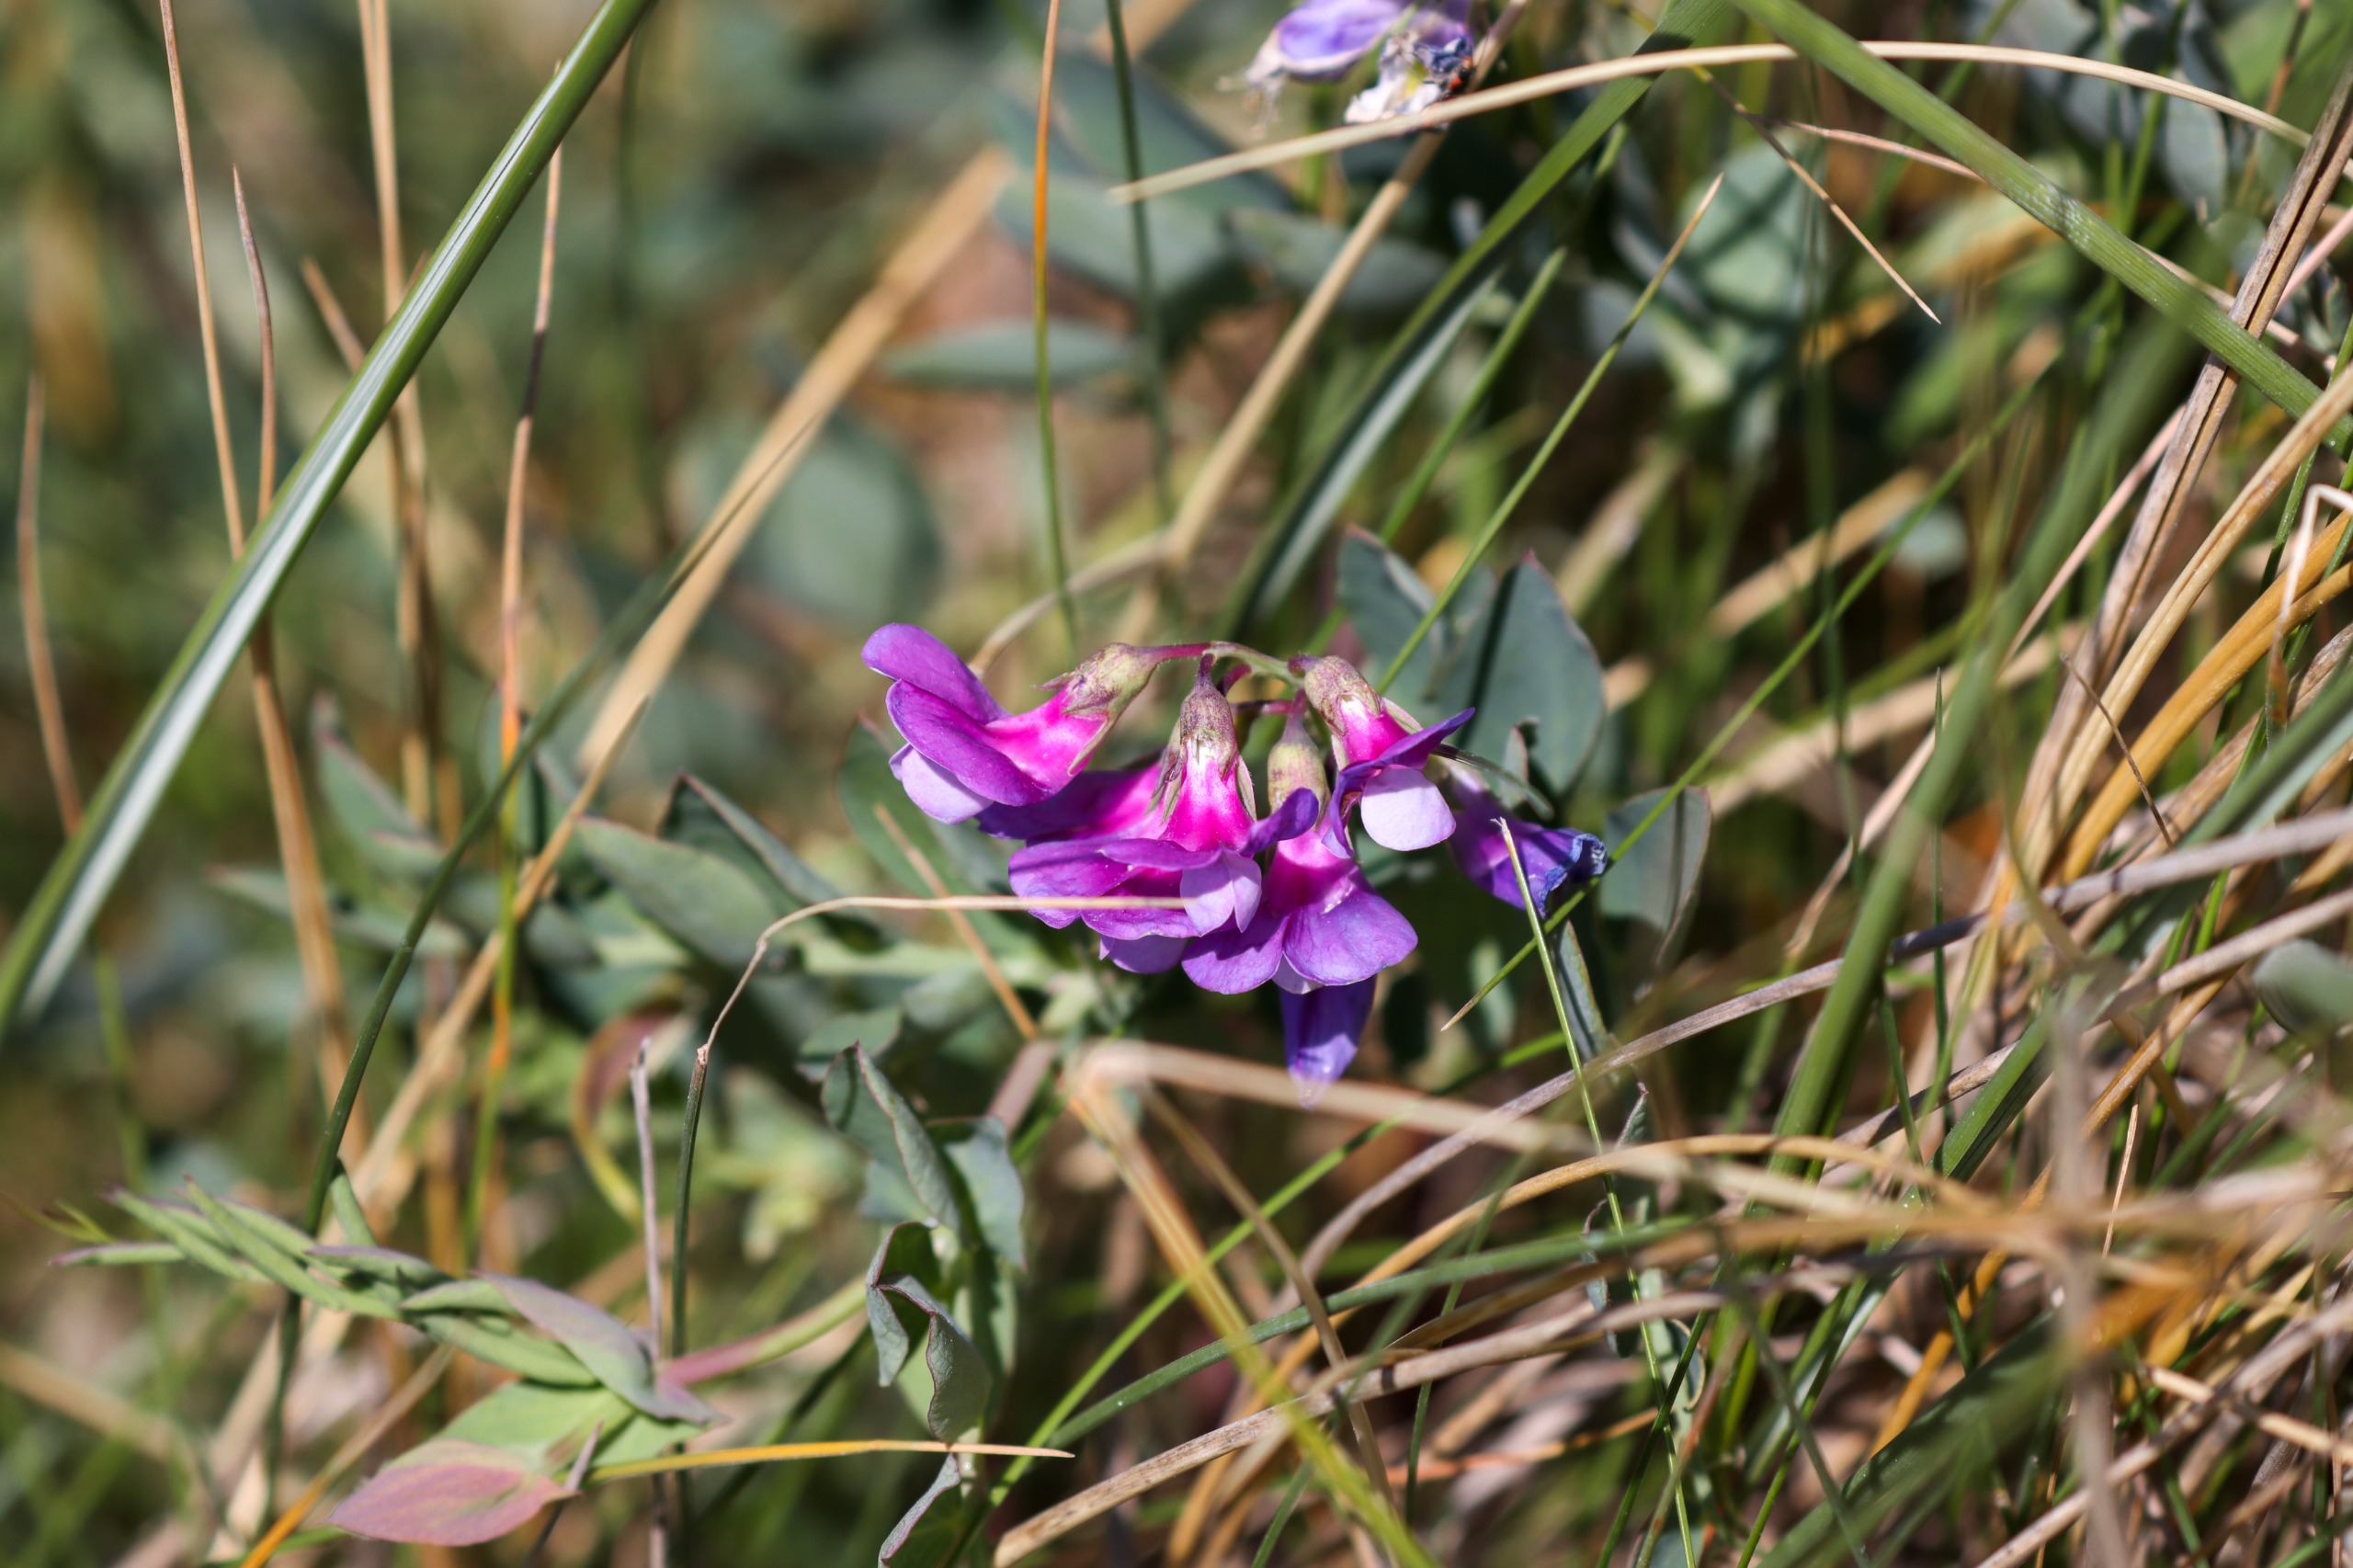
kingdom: Plantae
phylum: Tracheophyta
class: Magnoliopsida
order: Fabales
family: Fabaceae
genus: Lathyrus
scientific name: Lathyrus japonicus
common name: Strand-fladbælg
